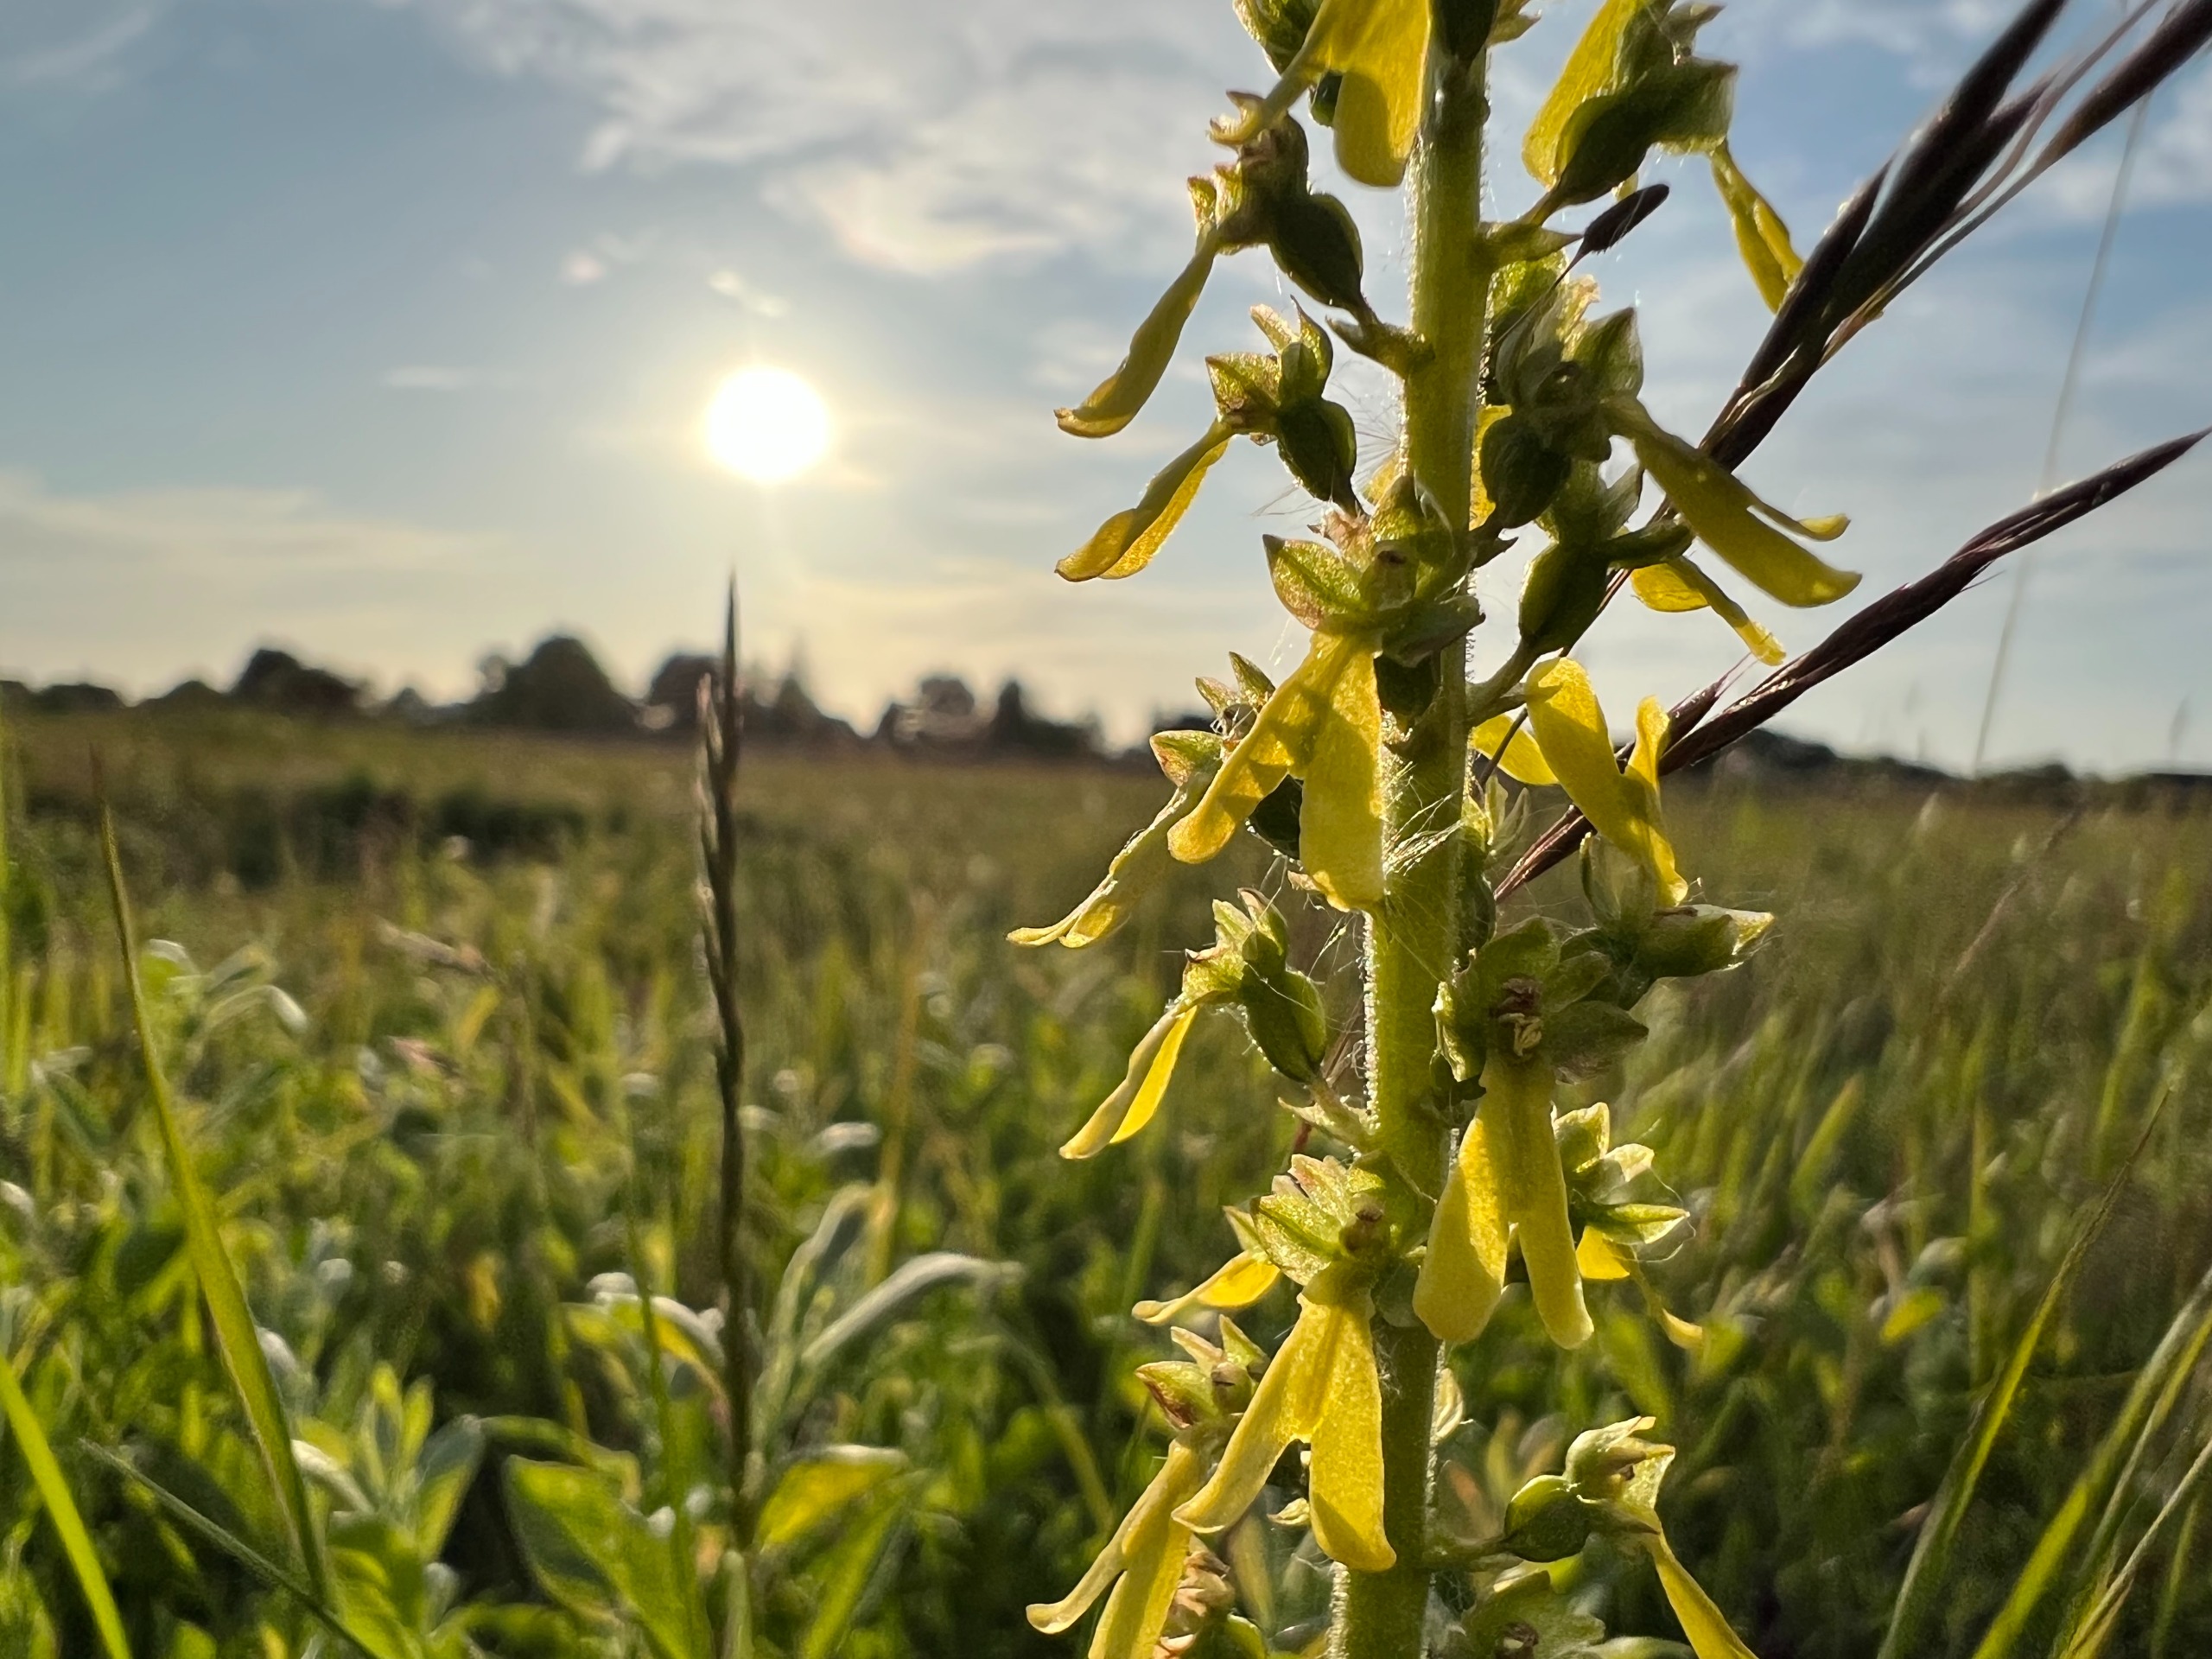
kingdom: Plantae
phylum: Tracheophyta
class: Liliopsida
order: Asparagales
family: Orchidaceae
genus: Neottia
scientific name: Neottia ovata
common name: Ægbladet fliglæbe
